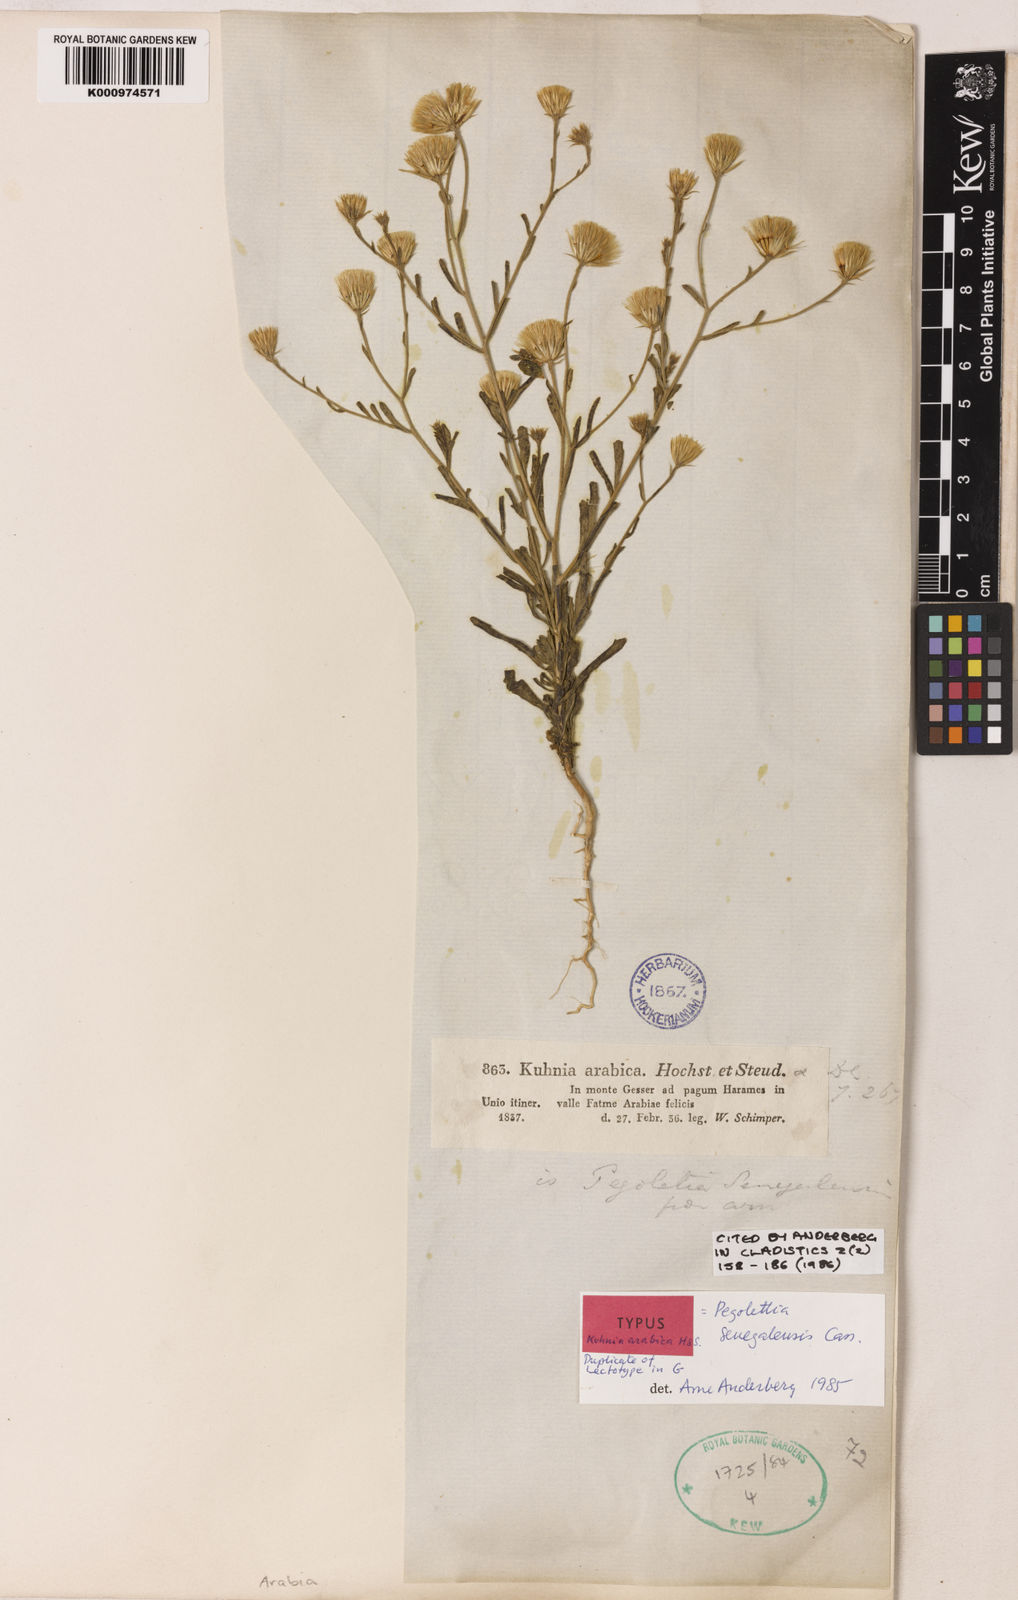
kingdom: Plantae
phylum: Tracheophyta
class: Magnoliopsida
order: Asterales
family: Asteraceae
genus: Pegolettia
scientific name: Pegolettia senegalensis
